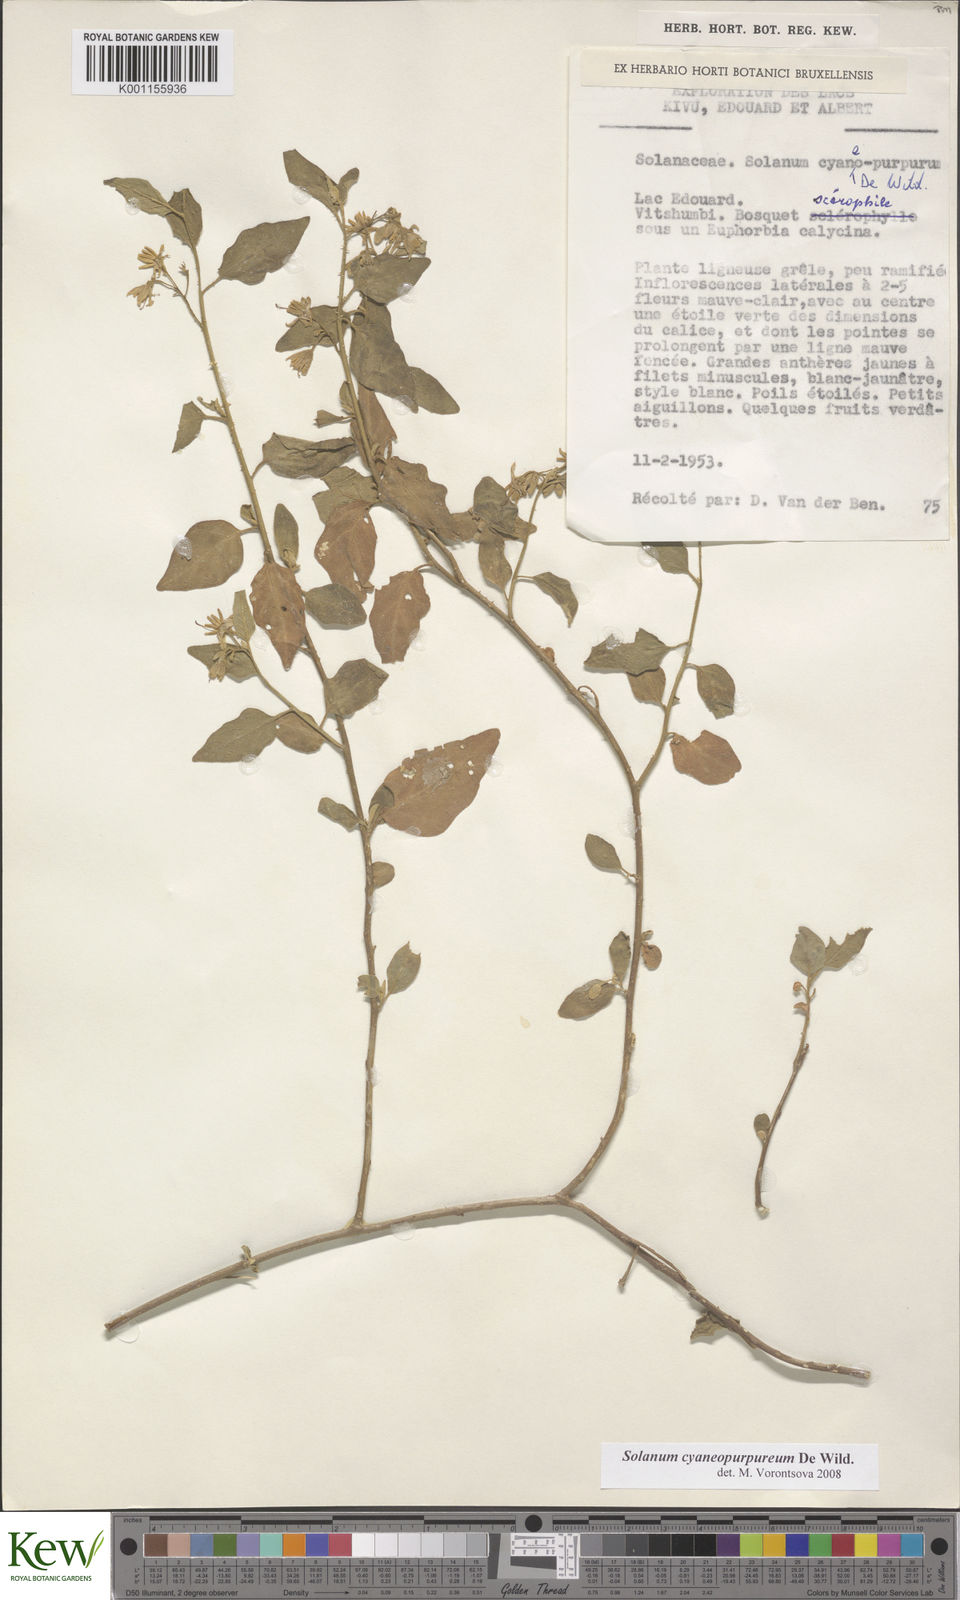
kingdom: Plantae
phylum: Tracheophyta
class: Magnoliopsida
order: Solanales
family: Solanaceae
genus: Solanum
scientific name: Solanum cyaneopurpureum
